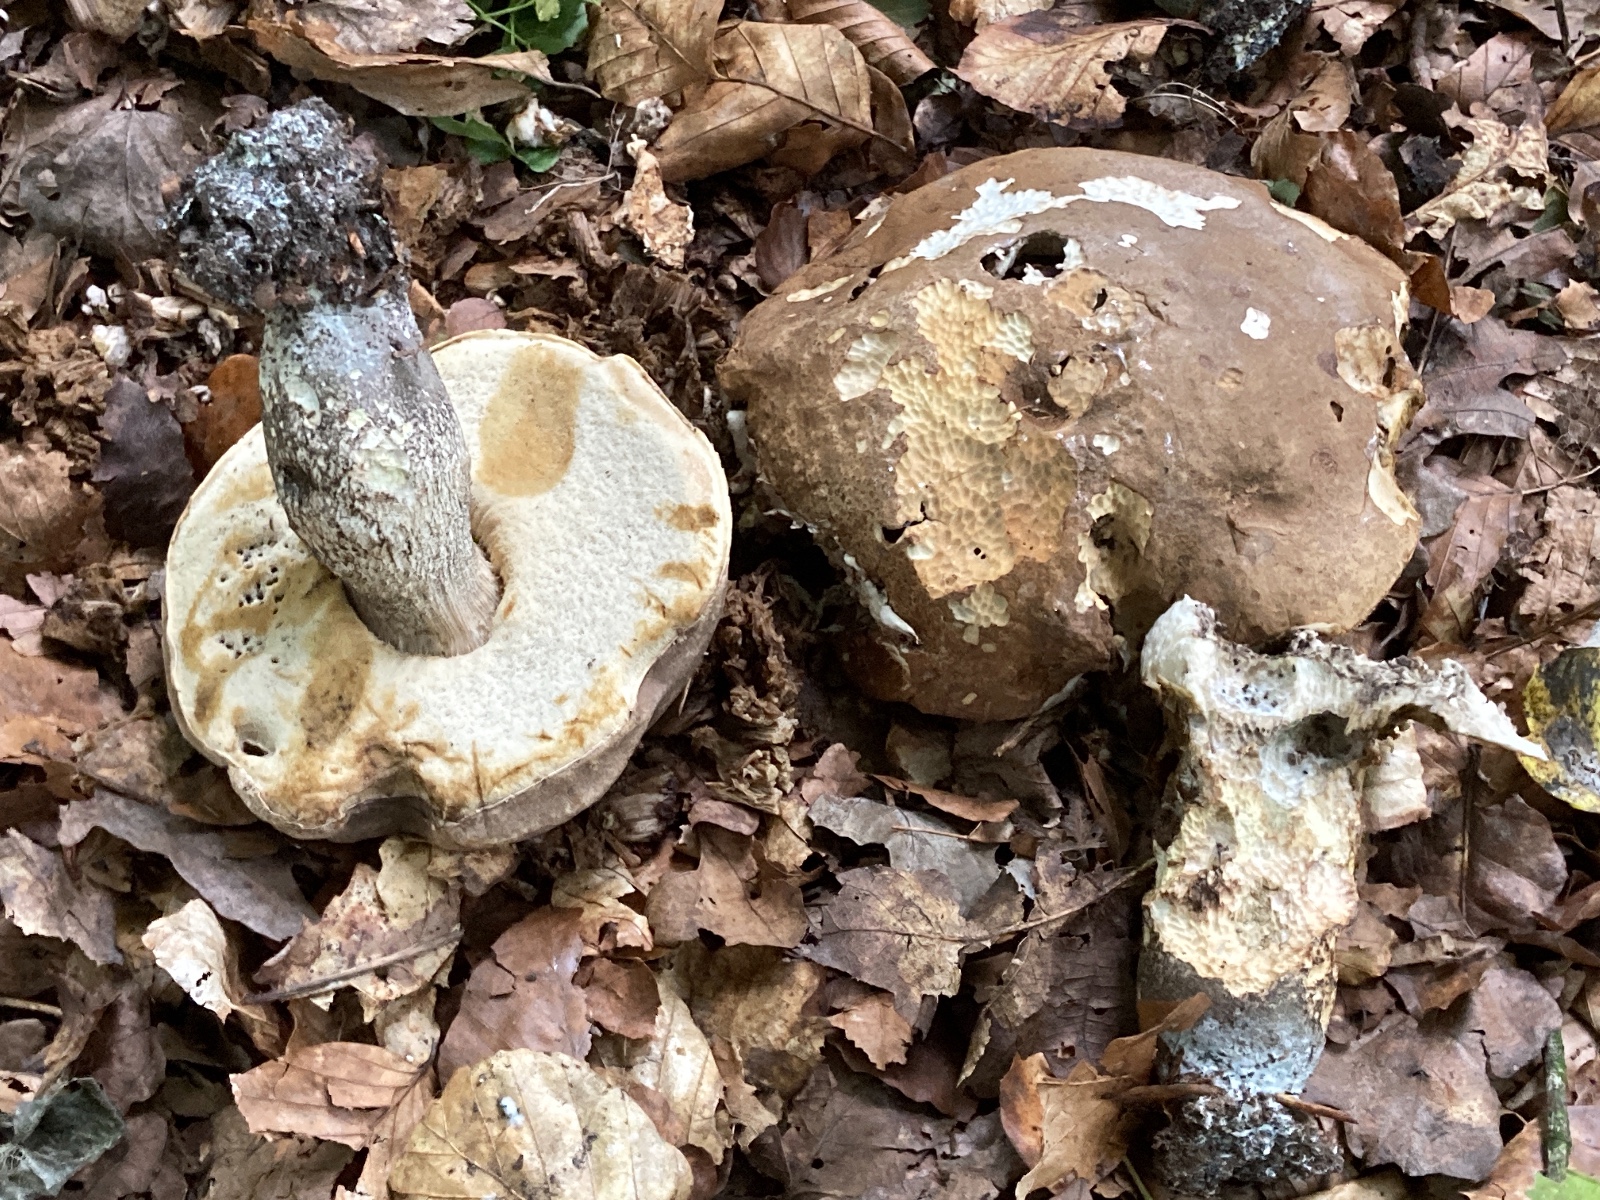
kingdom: Fungi
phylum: Basidiomycota
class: Agaricomycetes
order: Boletales
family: Boletaceae
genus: Leccinum
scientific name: Leccinum duriusculum
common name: poppel-skælrørhat
